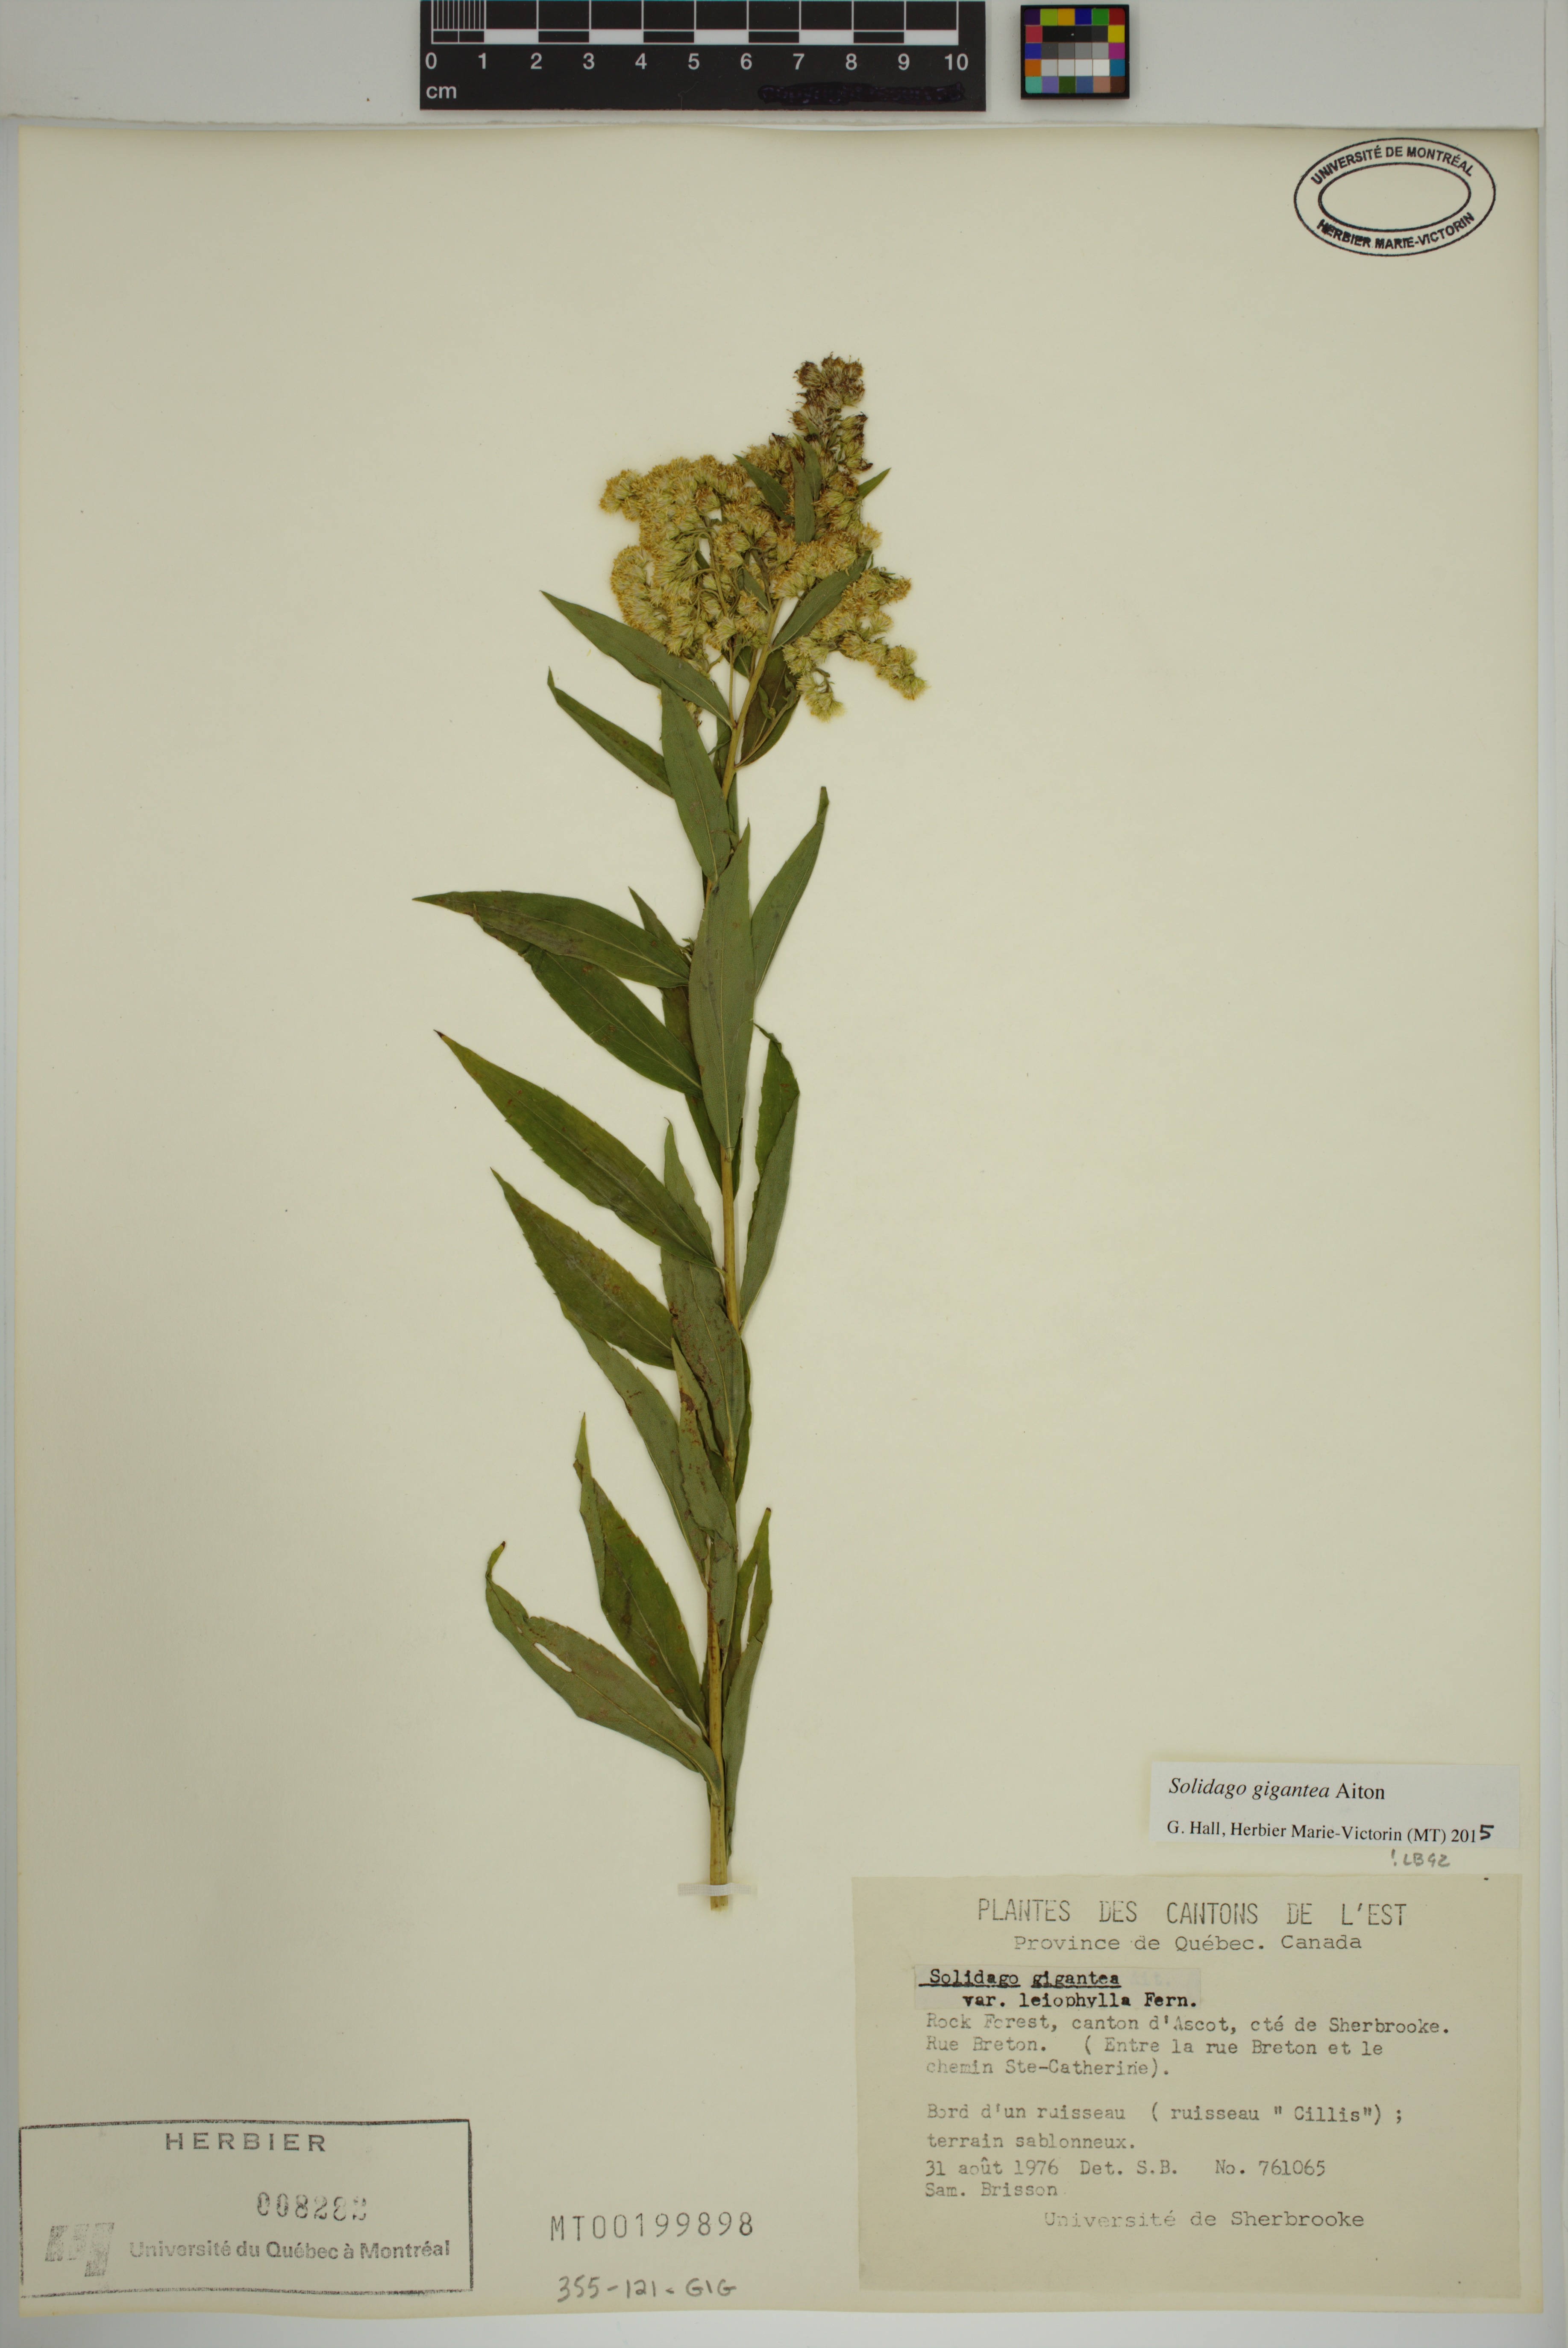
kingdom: Plantae
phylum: Tracheophyta
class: Magnoliopsida
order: Asterales
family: Asteraceae
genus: Solidago
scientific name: Solidago gigantea
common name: Giant goldenrod
